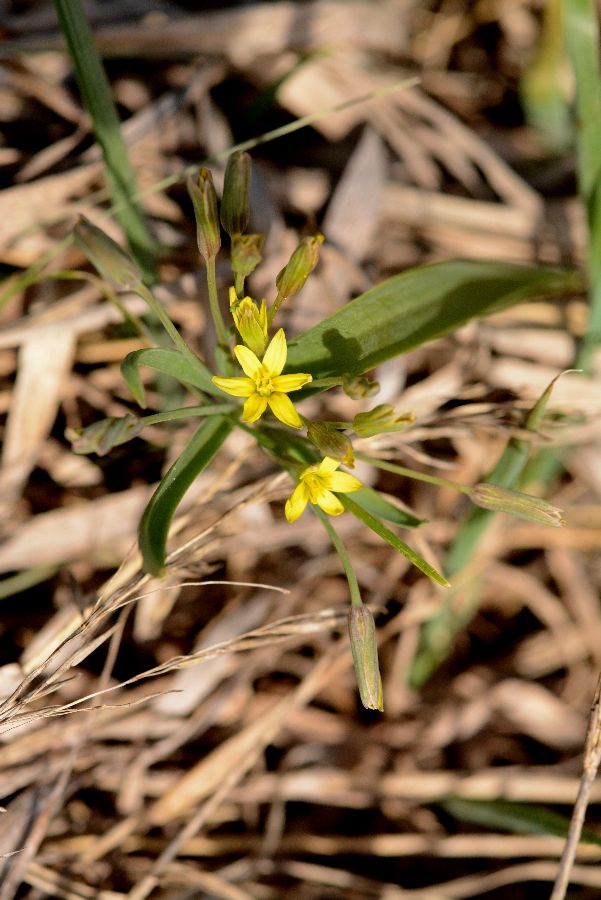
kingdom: Plantae
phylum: Tracheophyta
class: Liliopsida
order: Liliales
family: Liliaceae
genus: Gagea
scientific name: Gagea fragifera
